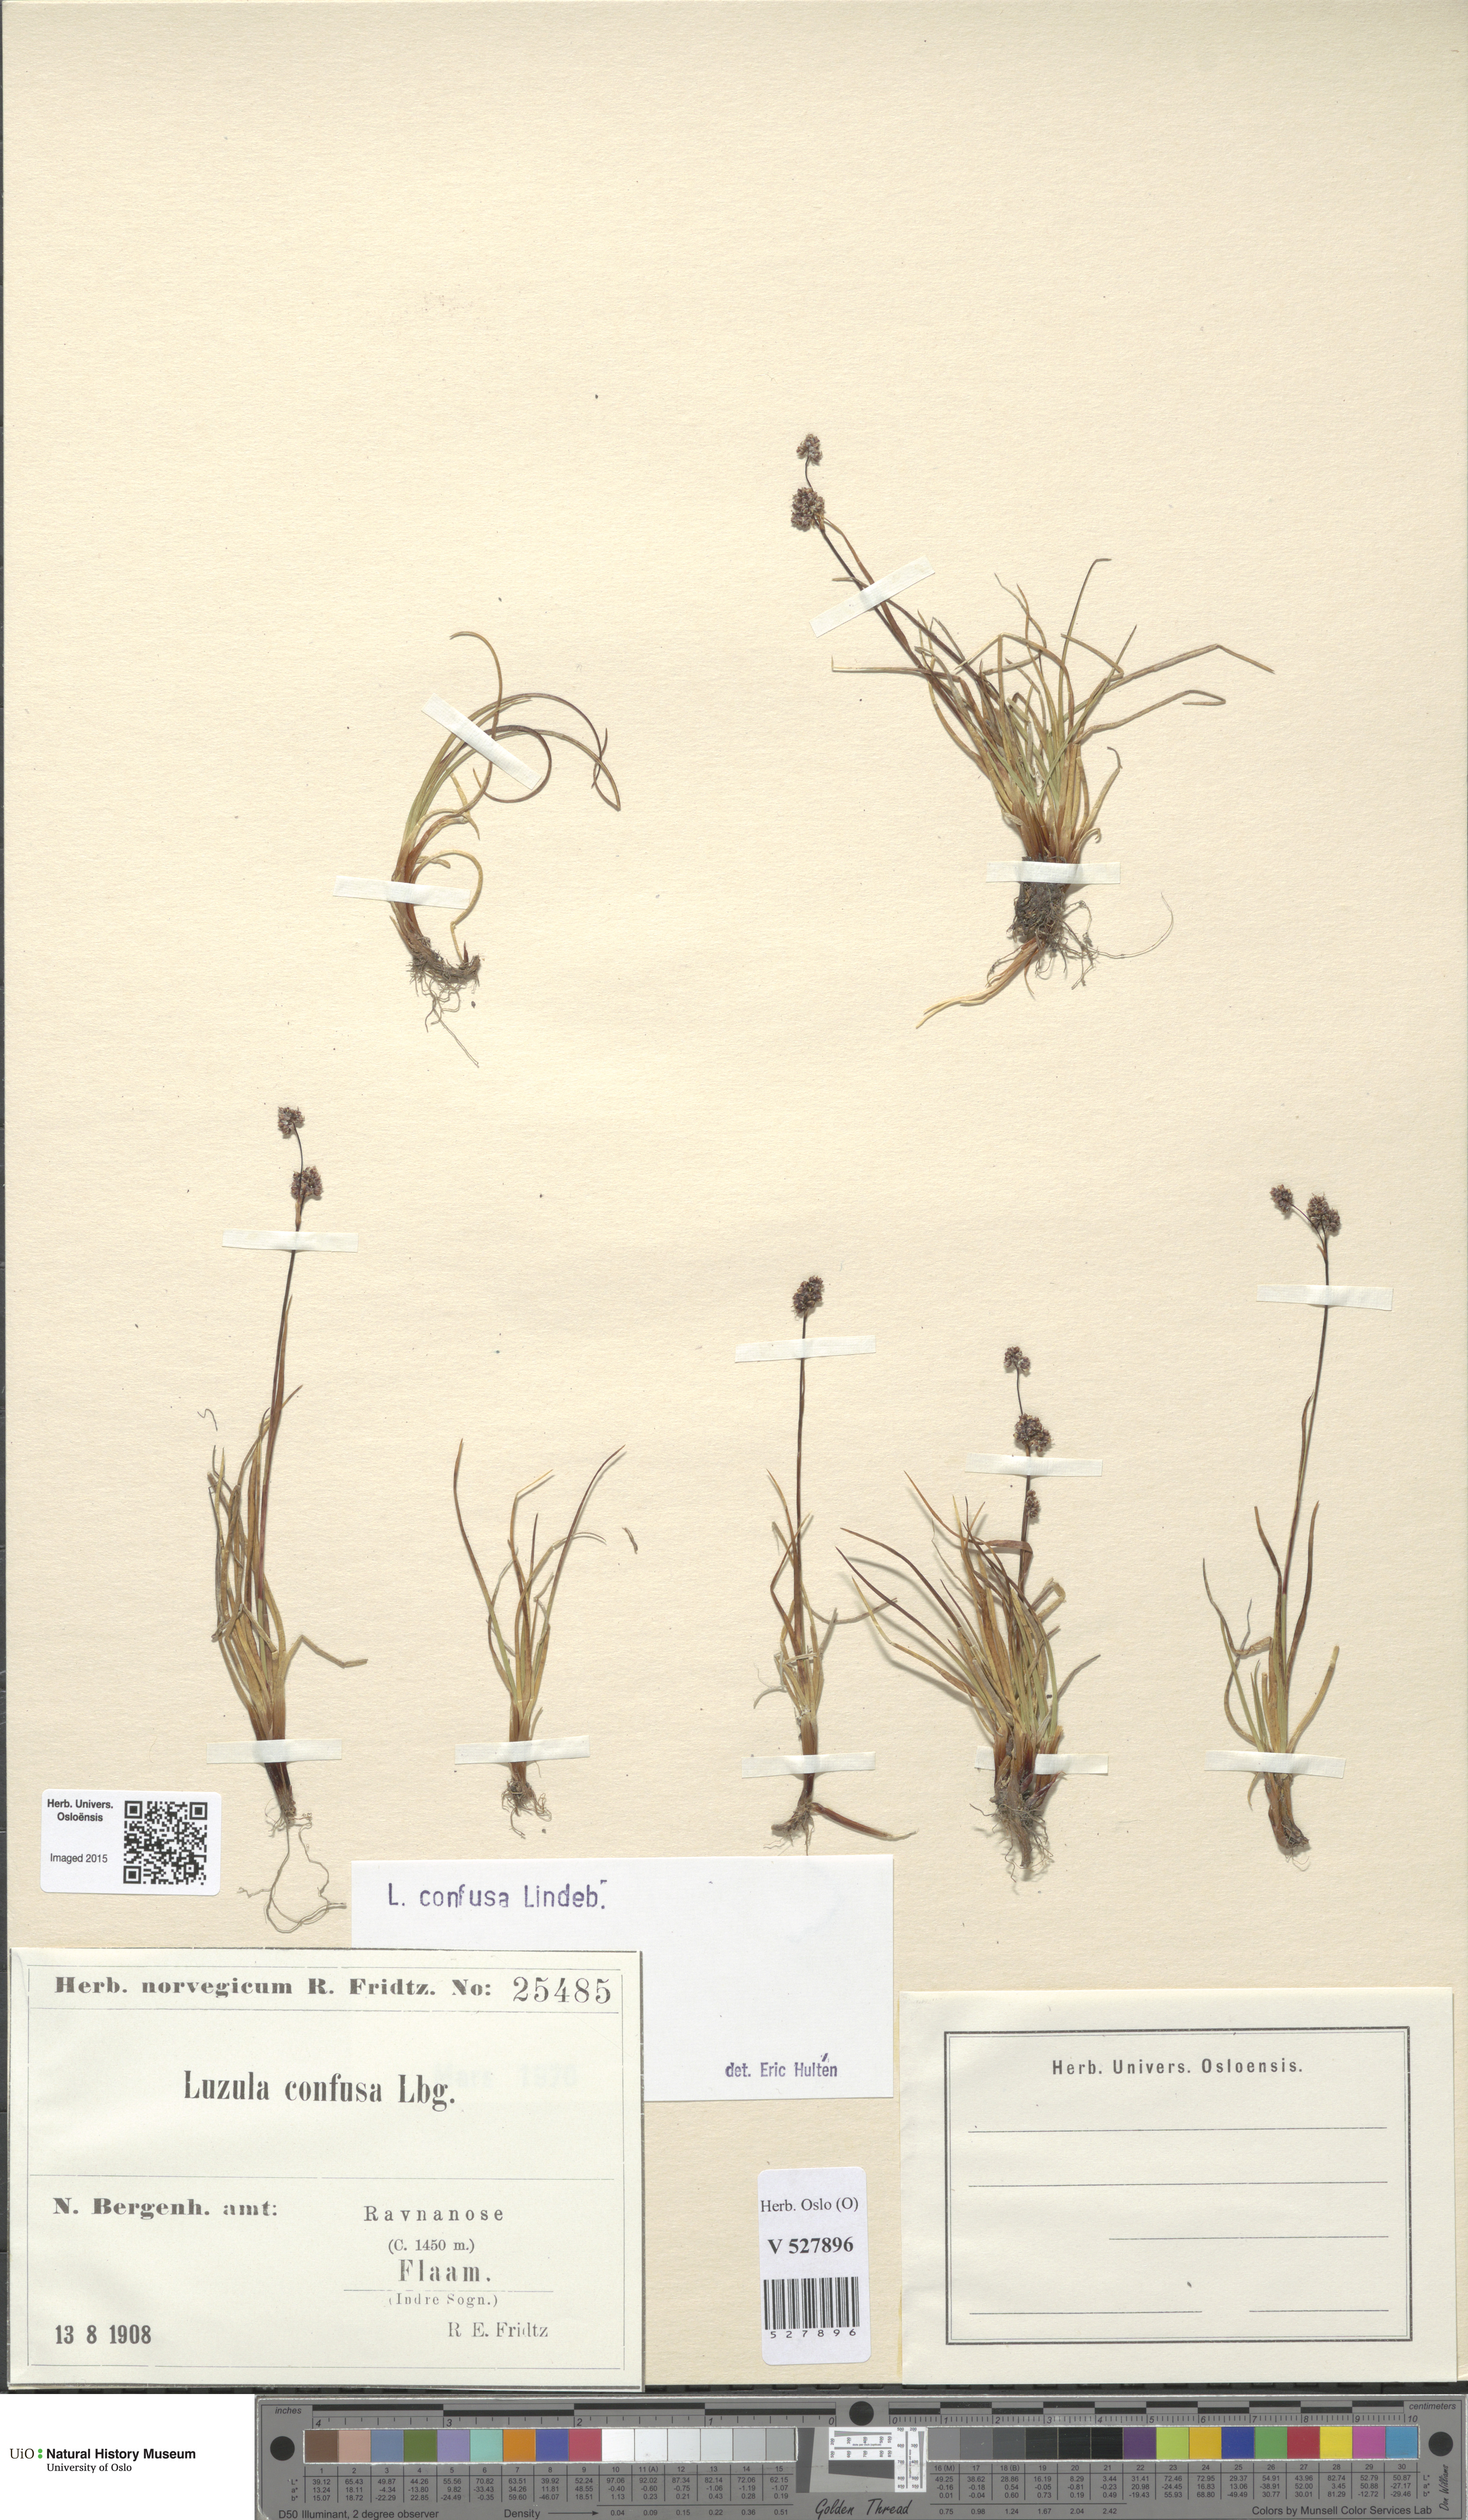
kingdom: Plantae
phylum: Tracheophyta
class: Liliopsida
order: Poales
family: Juncaceae
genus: Luzula
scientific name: Luzula confusa
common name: Northern wood rush
